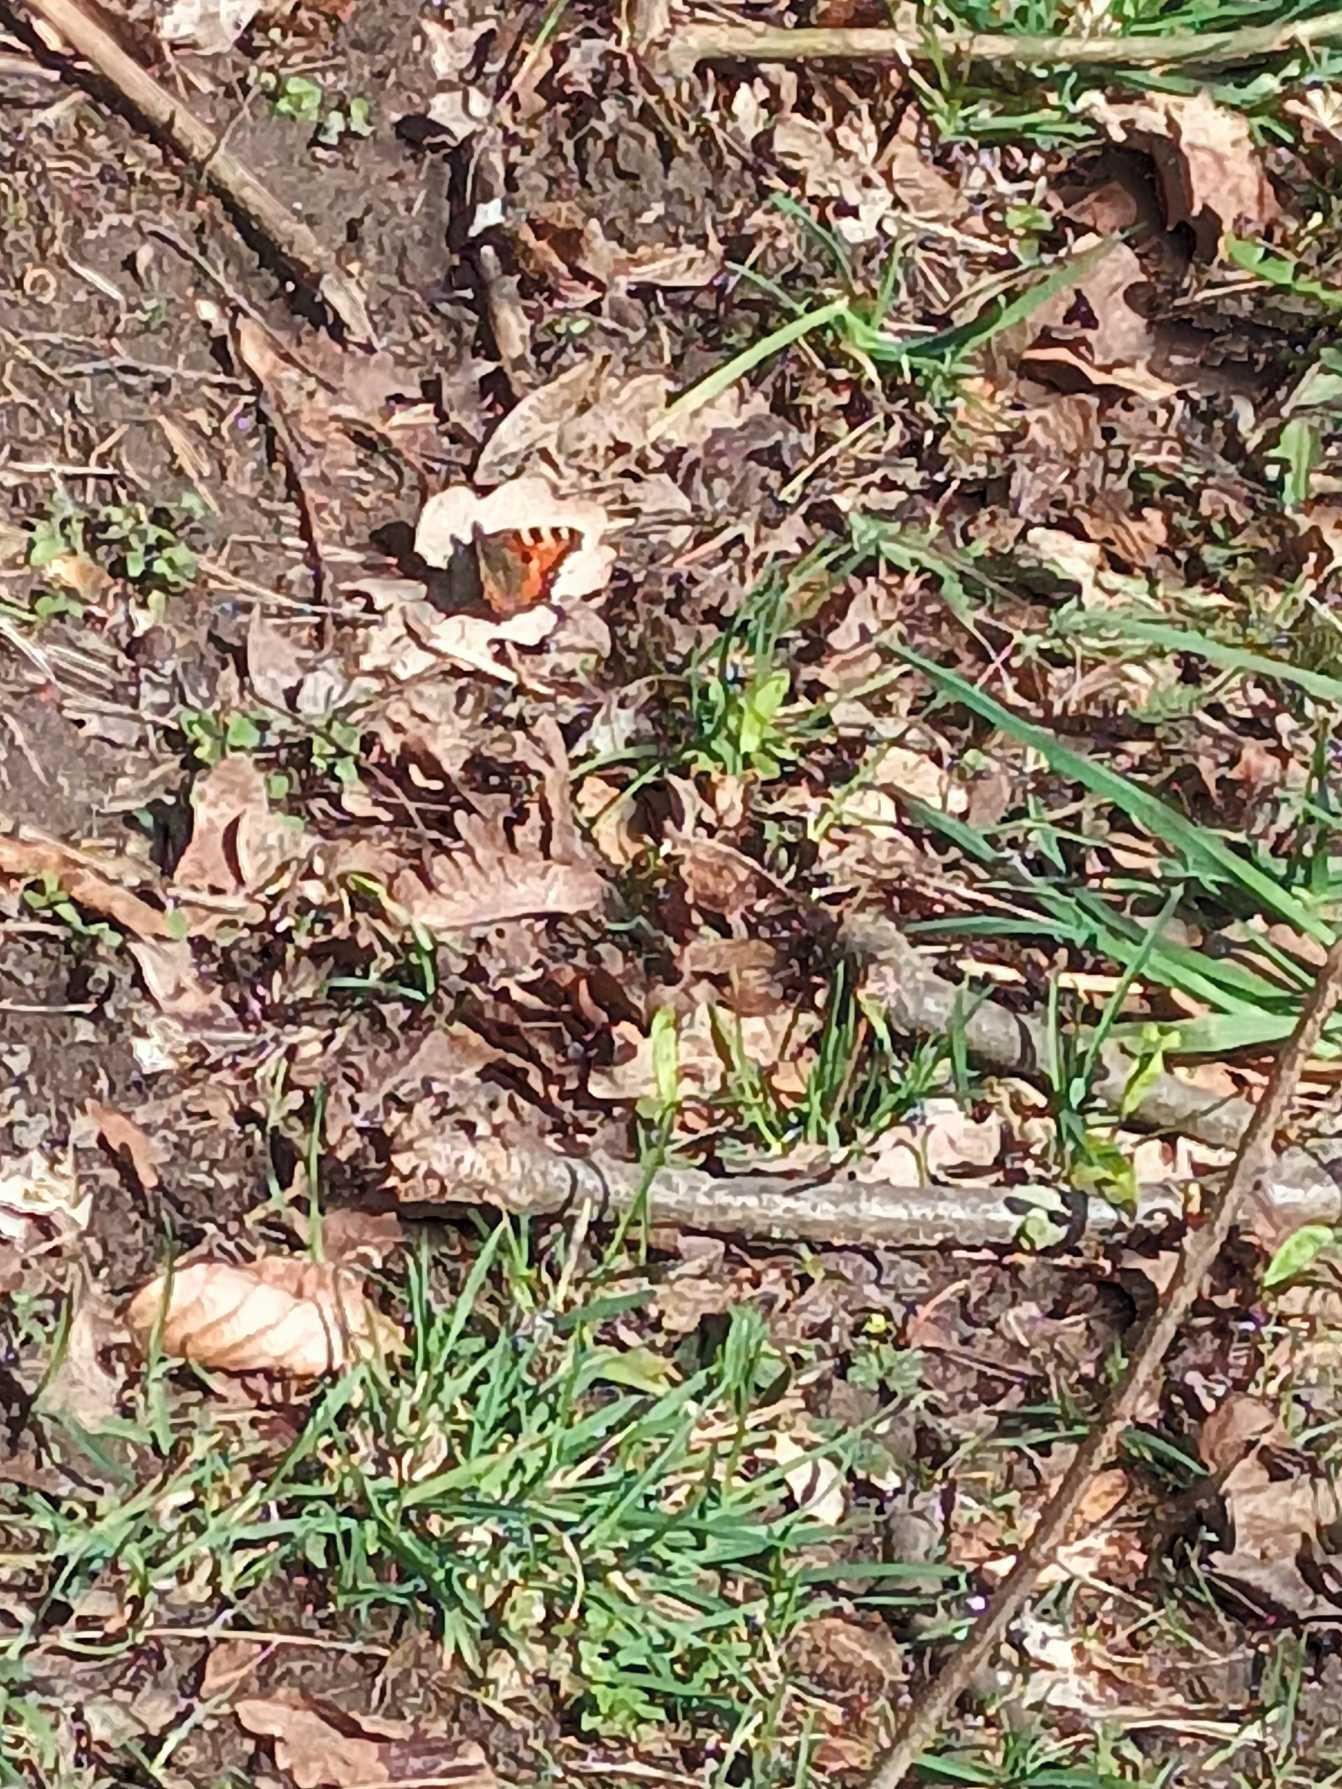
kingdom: Animalia
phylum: Arthropoda
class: Insecta
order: Lepidoptera
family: Nymphalidae
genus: Aglais
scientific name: Aglais urticae
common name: Nældens takvinge
